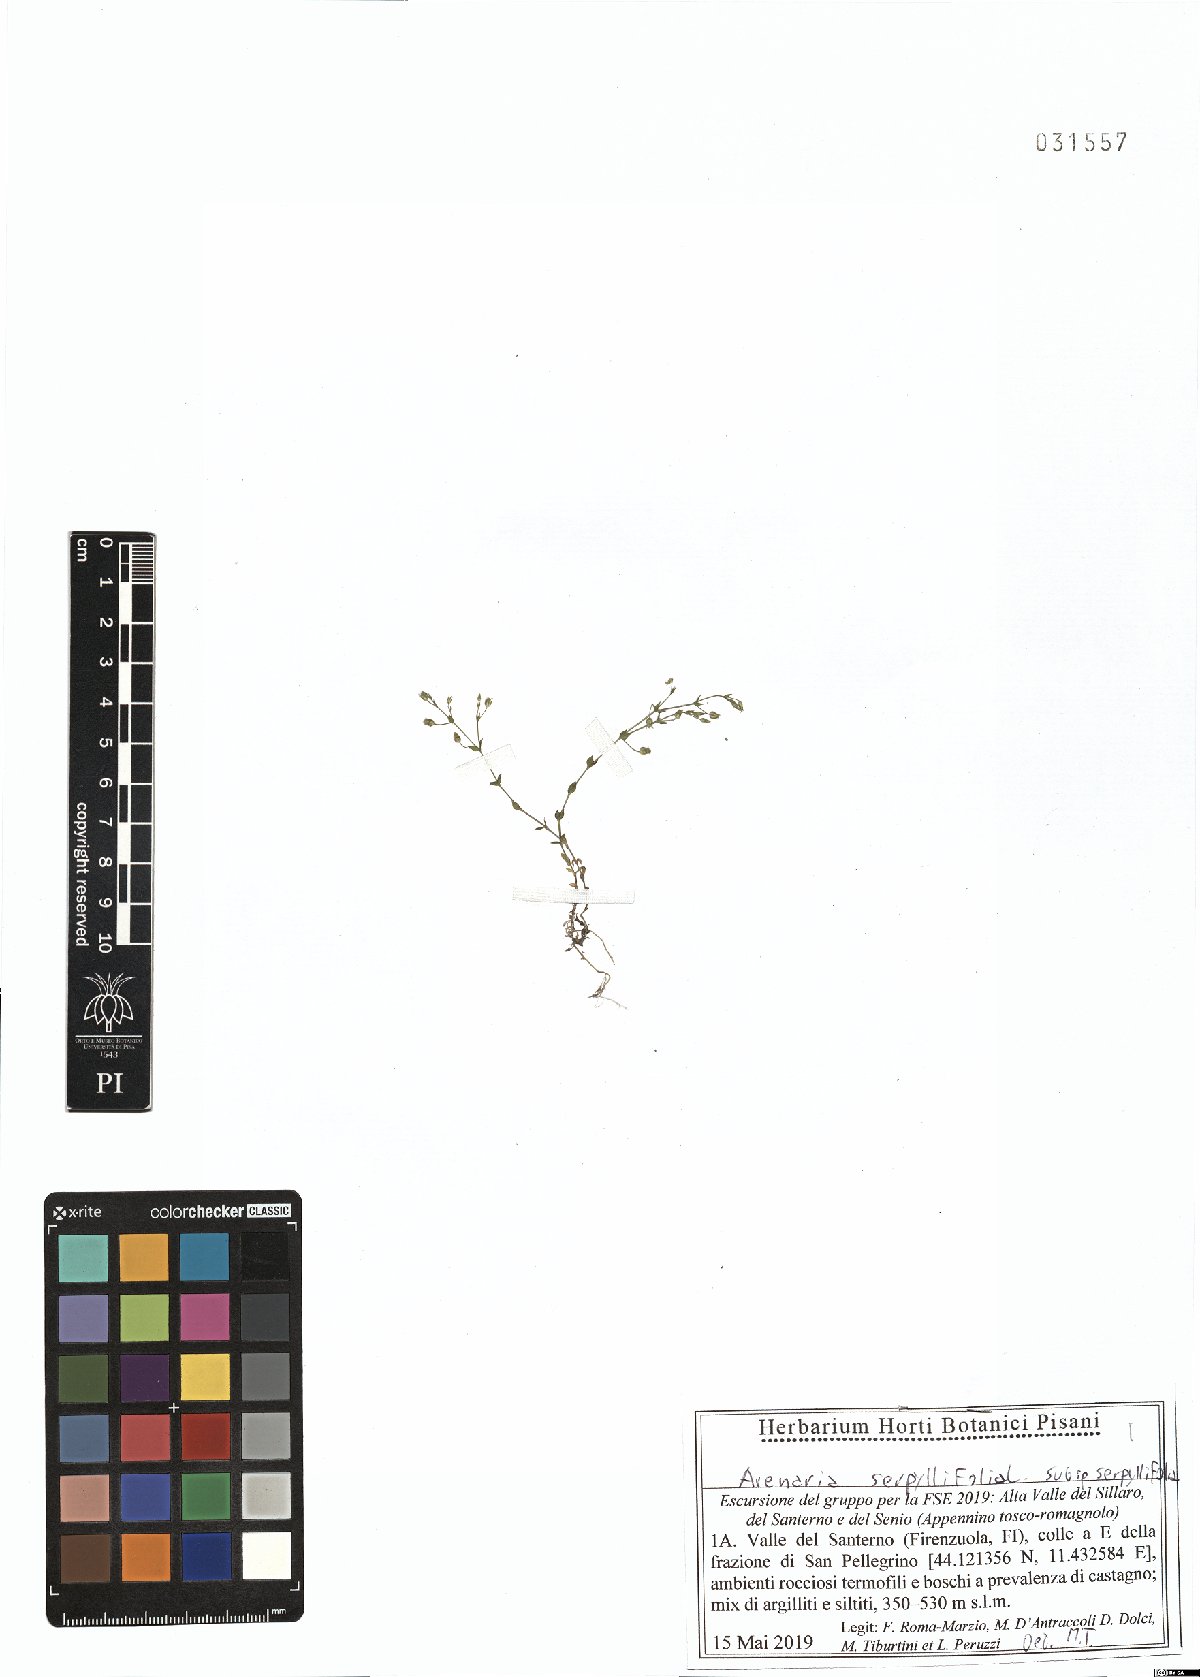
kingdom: Plantae
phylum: Tracheophyta
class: Magnoliopsida
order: Caryophyllales
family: Caryophyllaceae
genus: Arenaria
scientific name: Arenaria serpyllifolia
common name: Thyme-leaved sandwort
